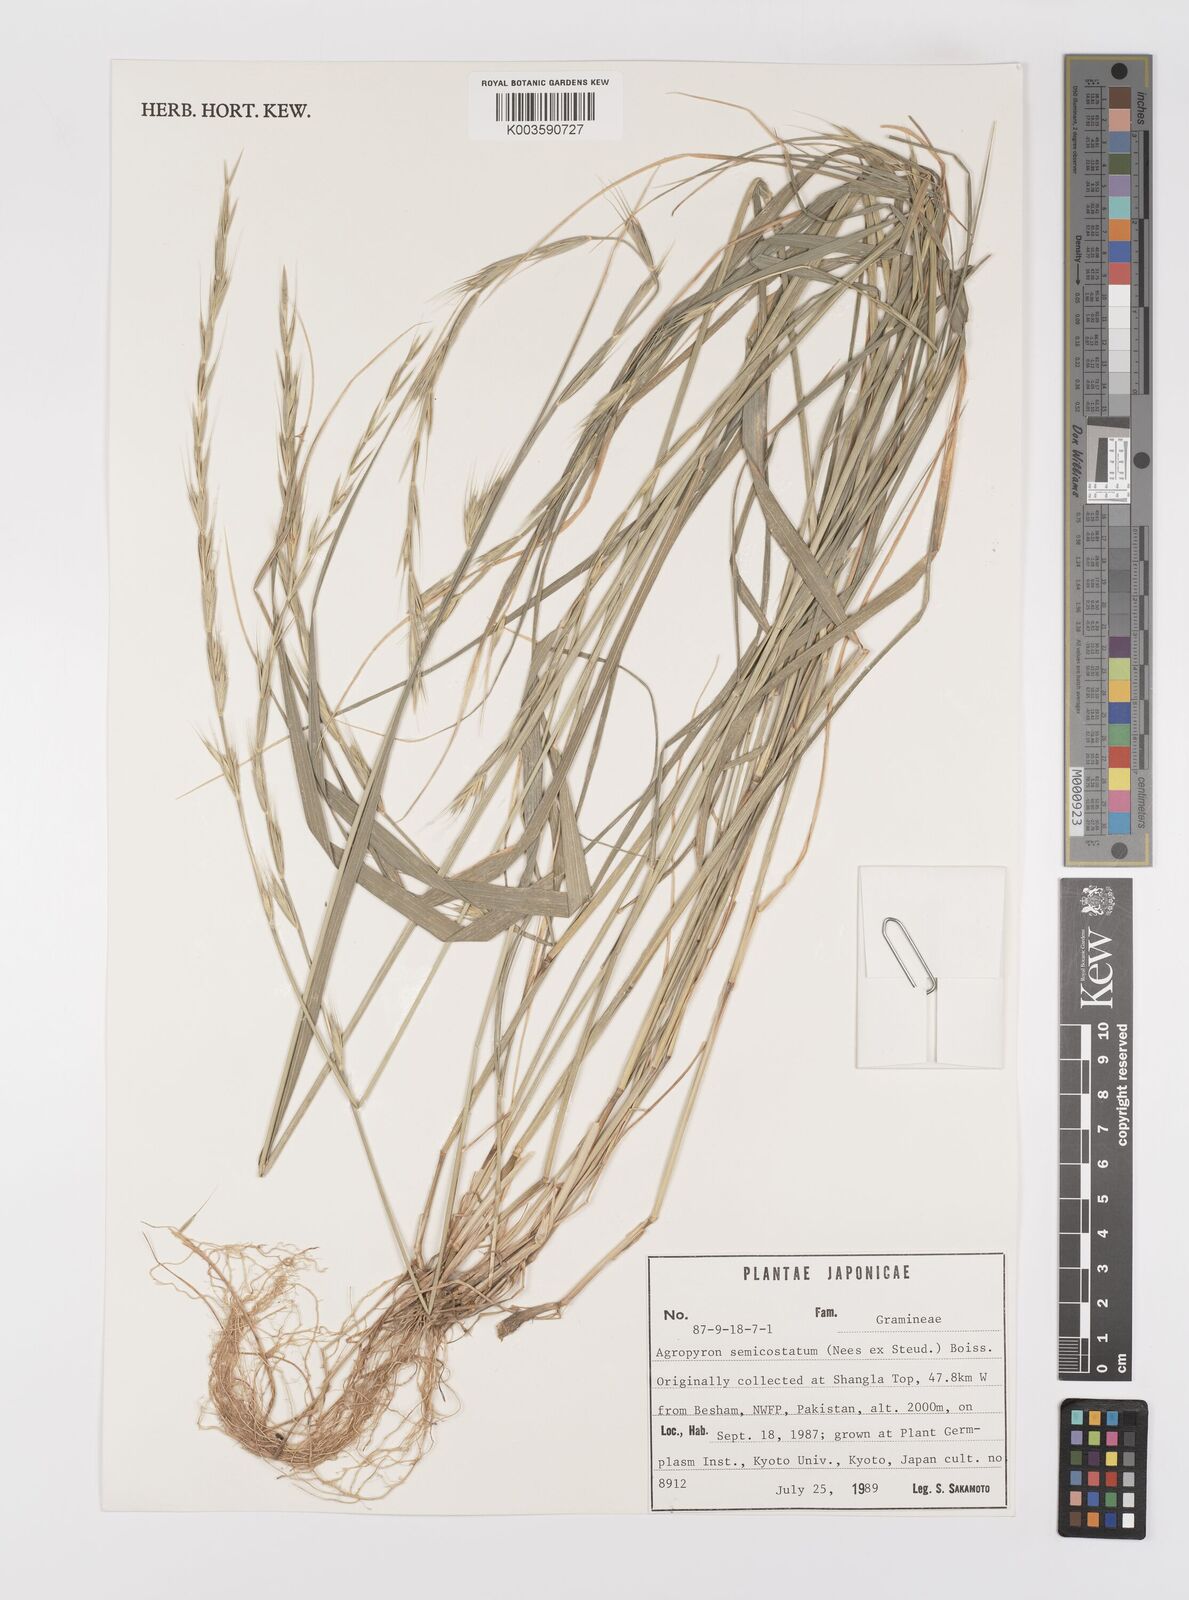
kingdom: Plantae
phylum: Tracheophyta
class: Liliopsida
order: Poales
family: Poaceae
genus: Elymus
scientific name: Elymus semicostatus
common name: Drooping wildrye
